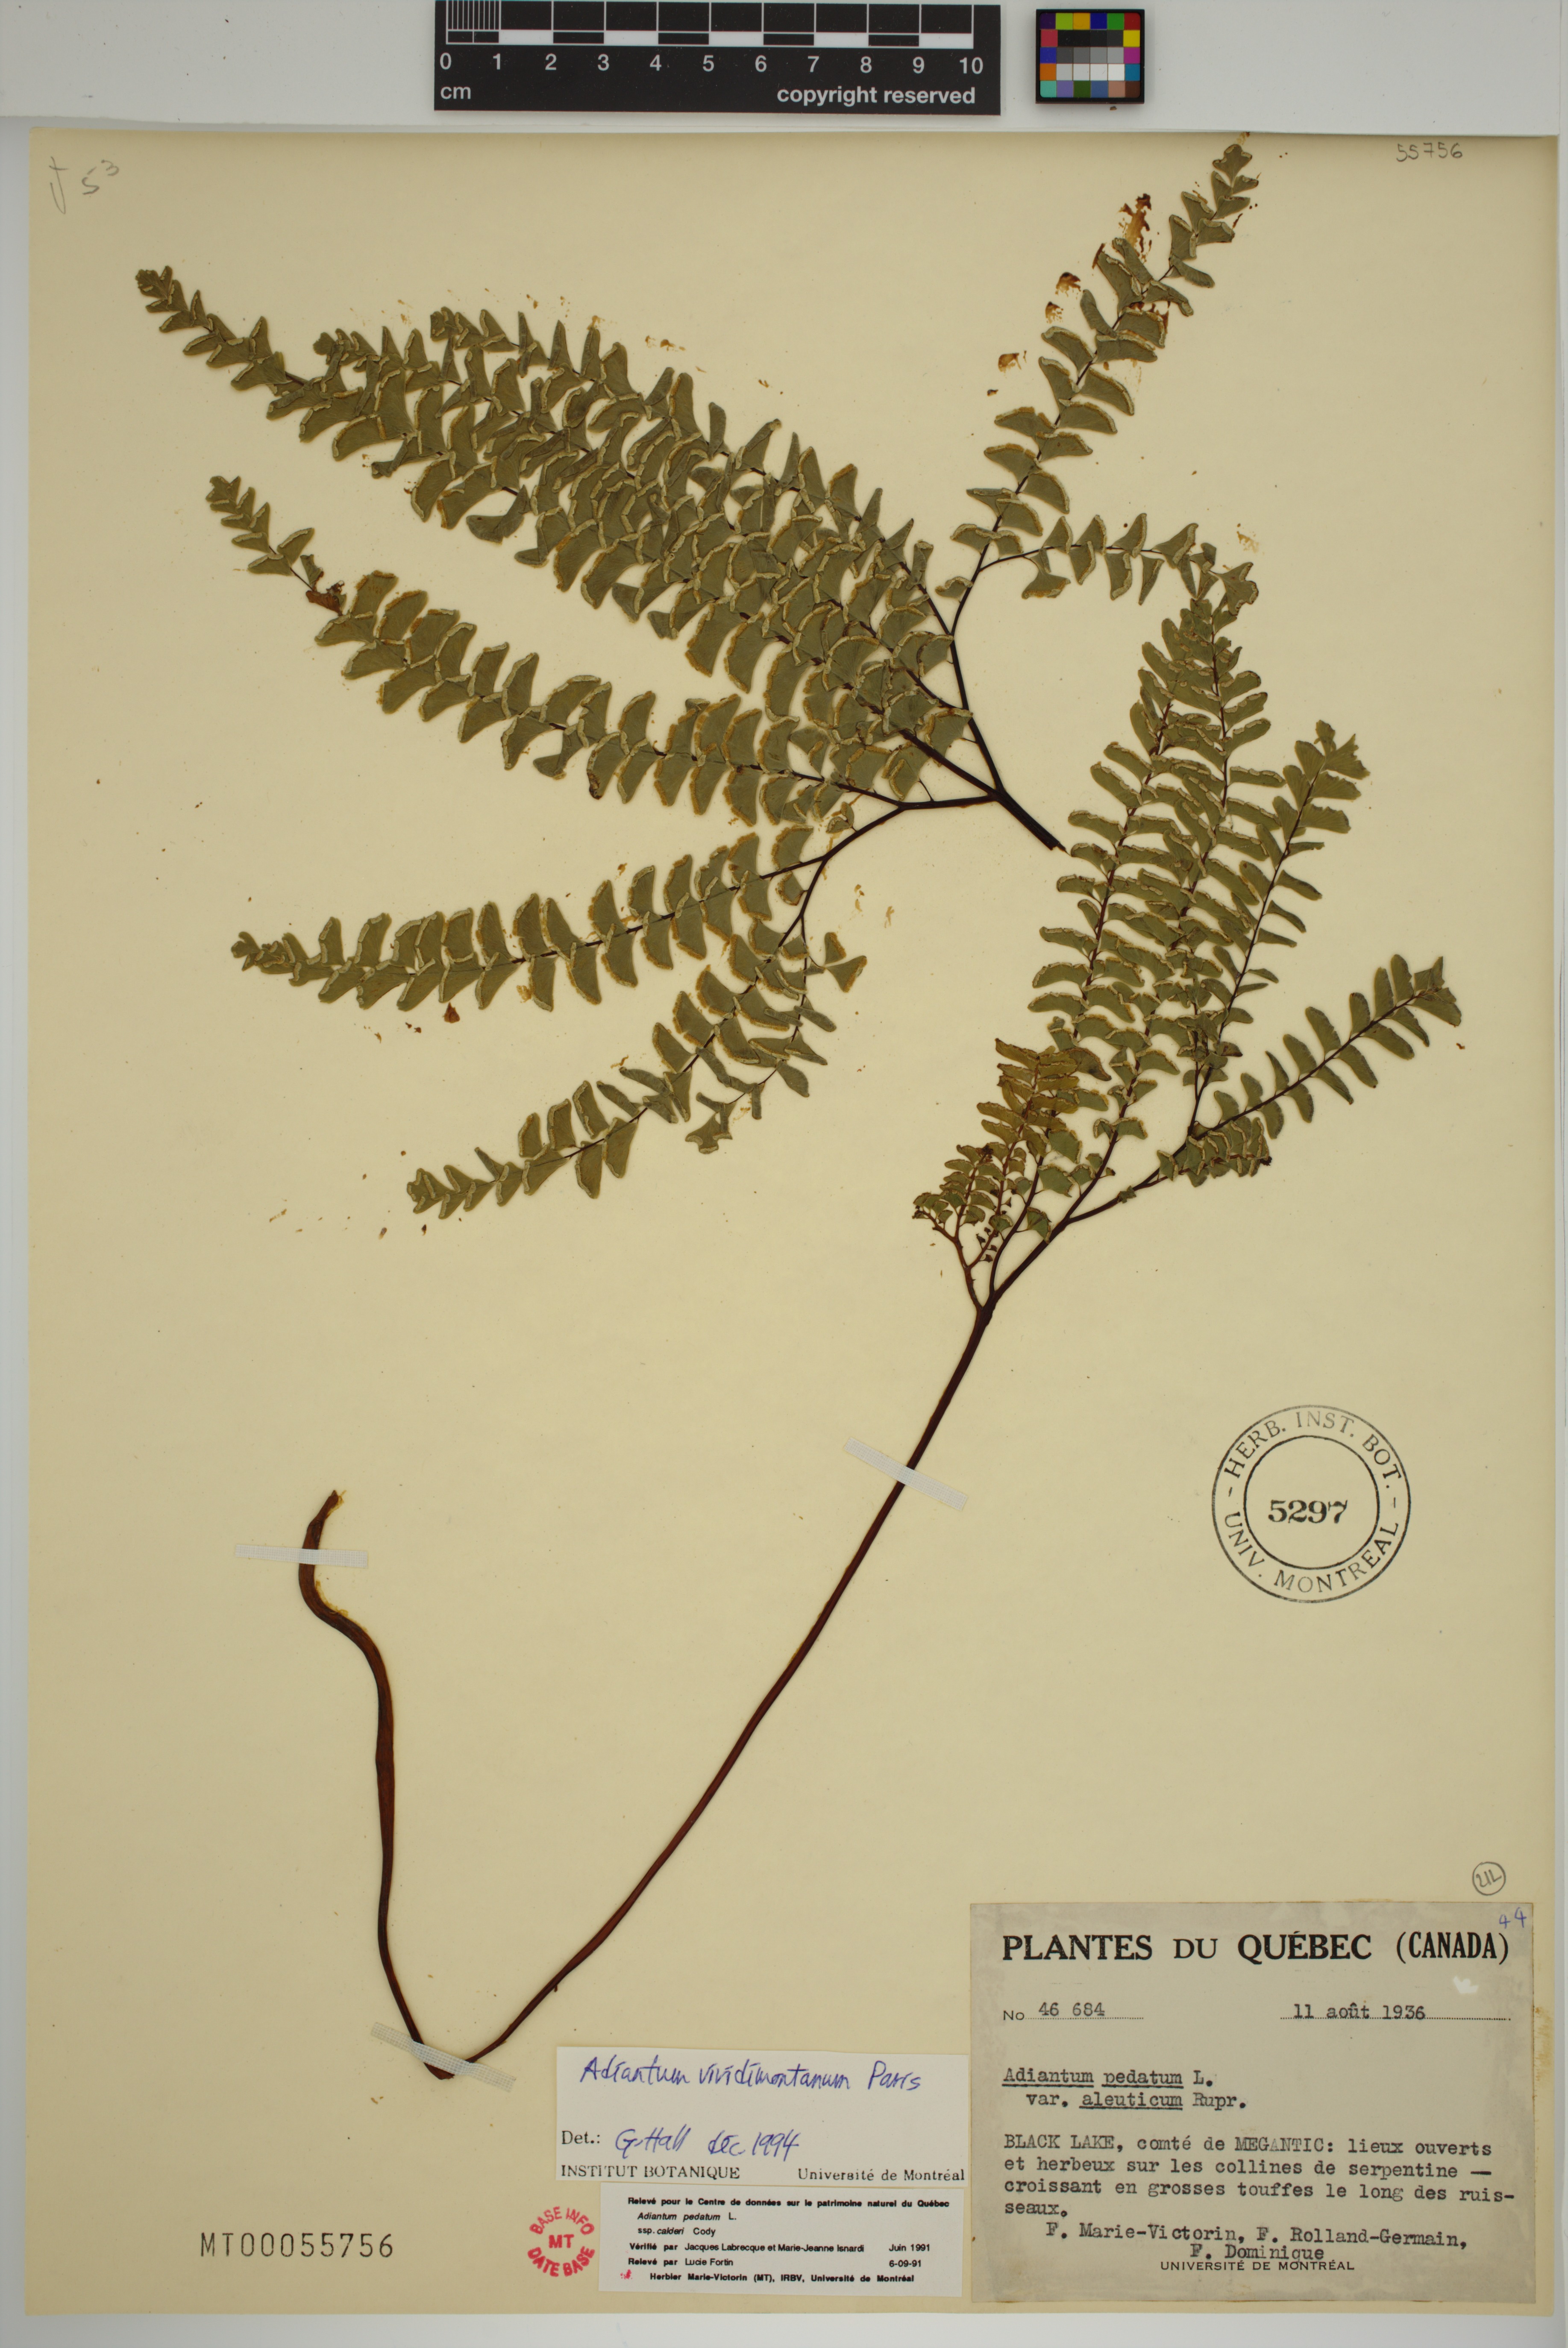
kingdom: Plantae
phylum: Tracheophyta
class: Polypodiopsida
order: Polypodiales
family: Pteridaceae
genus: Adiantum
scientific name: Adiantum viridimontanum
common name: Green mountain maidenhair
